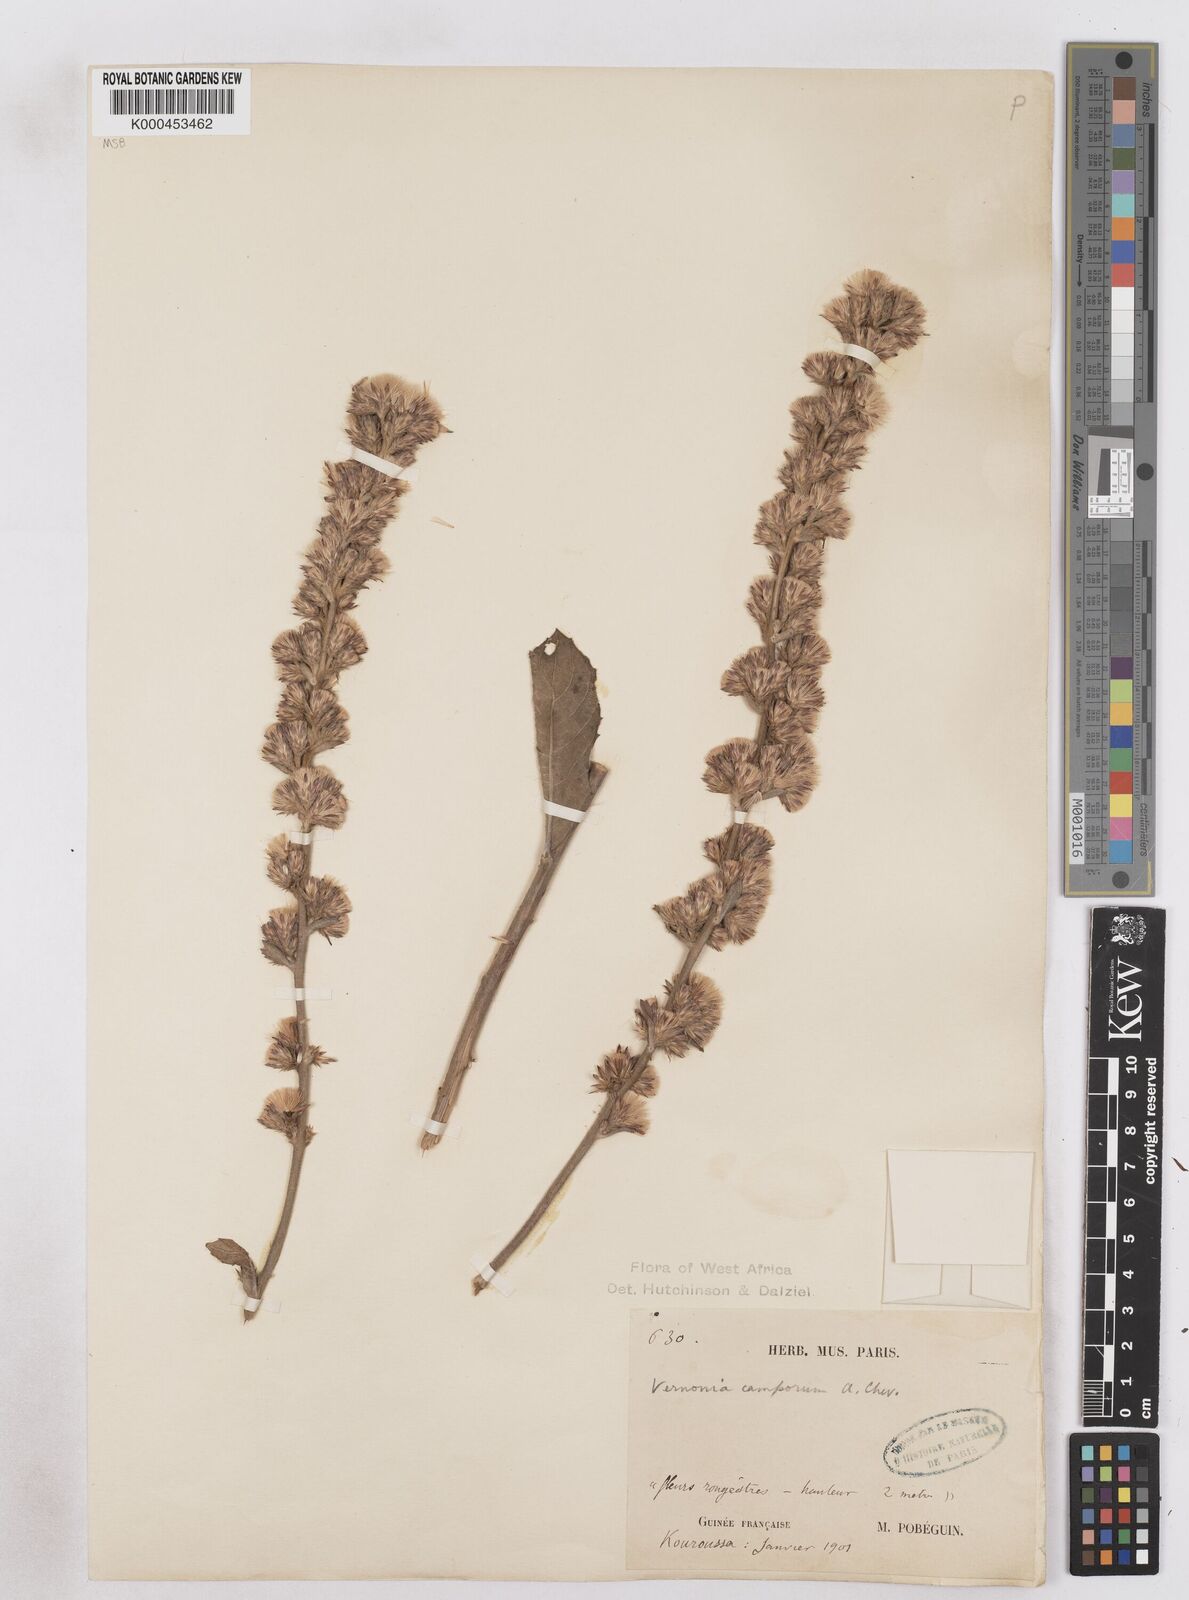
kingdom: Plantae
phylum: Tracheophyta
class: Magnoliopsida
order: Asterales
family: Asteraceae
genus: Vernoniastrum
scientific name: Vernoniastrum camporum
